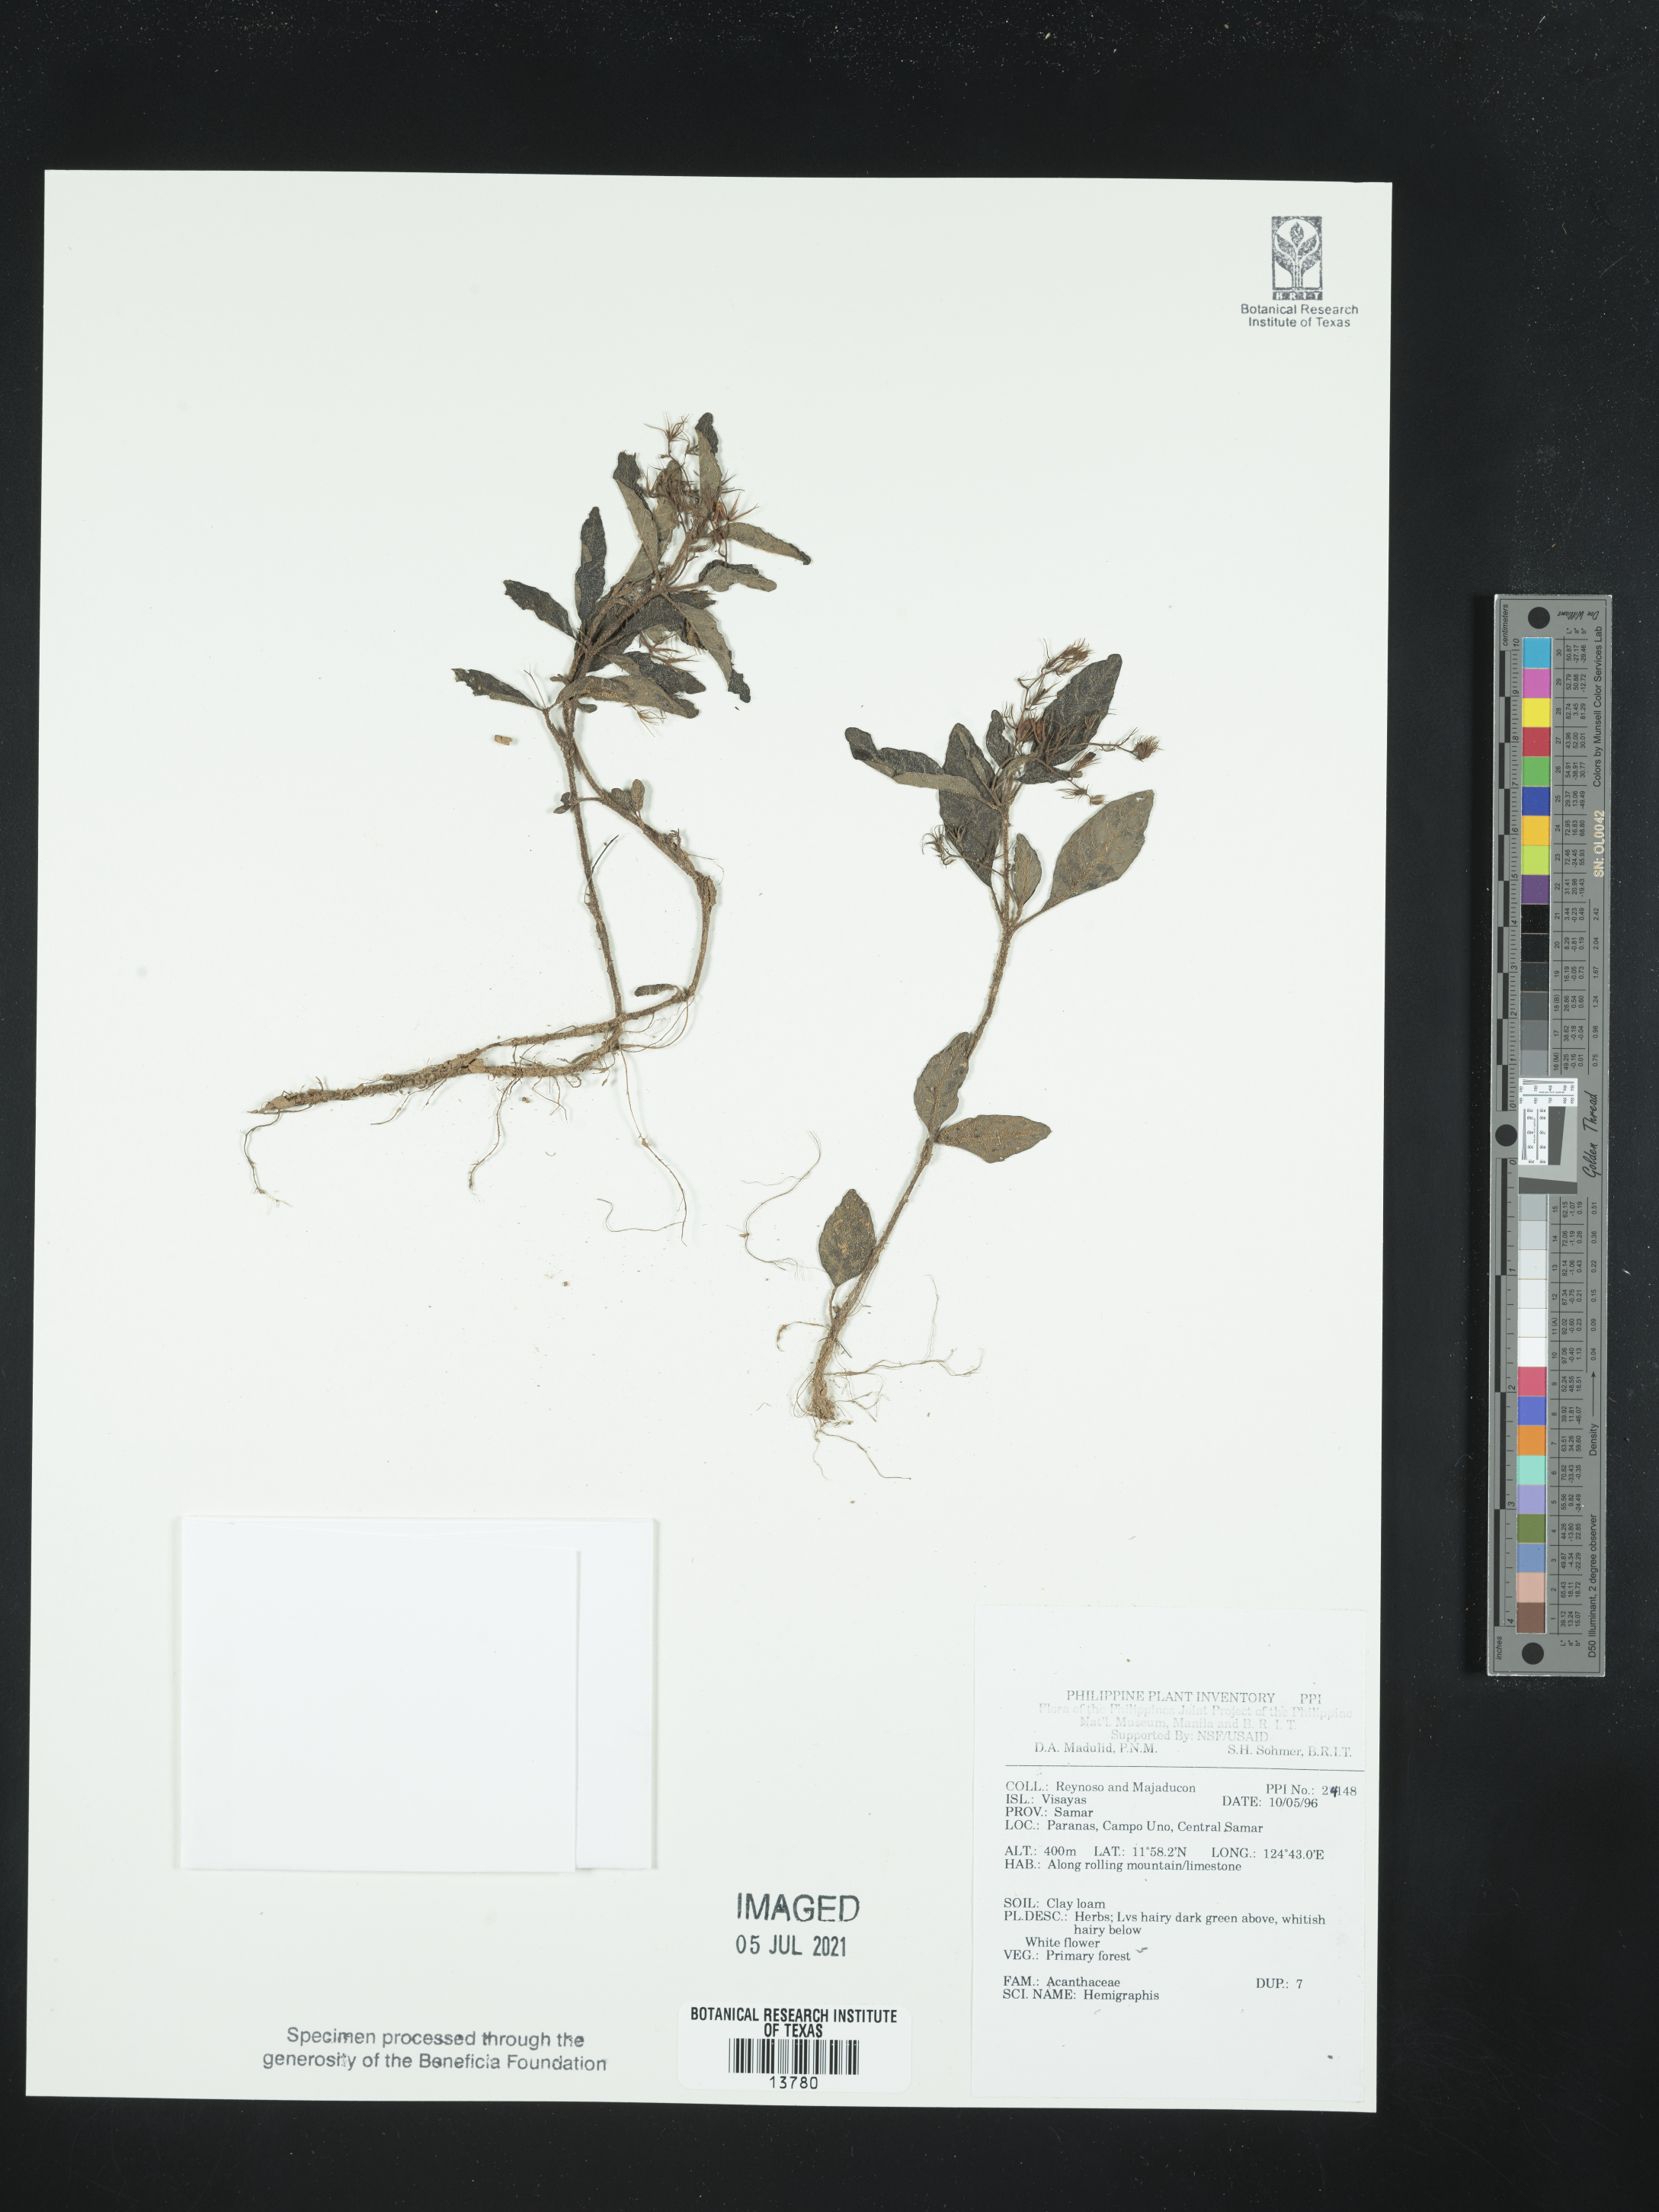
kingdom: Plantae
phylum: Tracheophyta
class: Magnoliopsida
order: Lamiales
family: Acanthaceae
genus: Hemigraphis
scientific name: Hemigraphis
